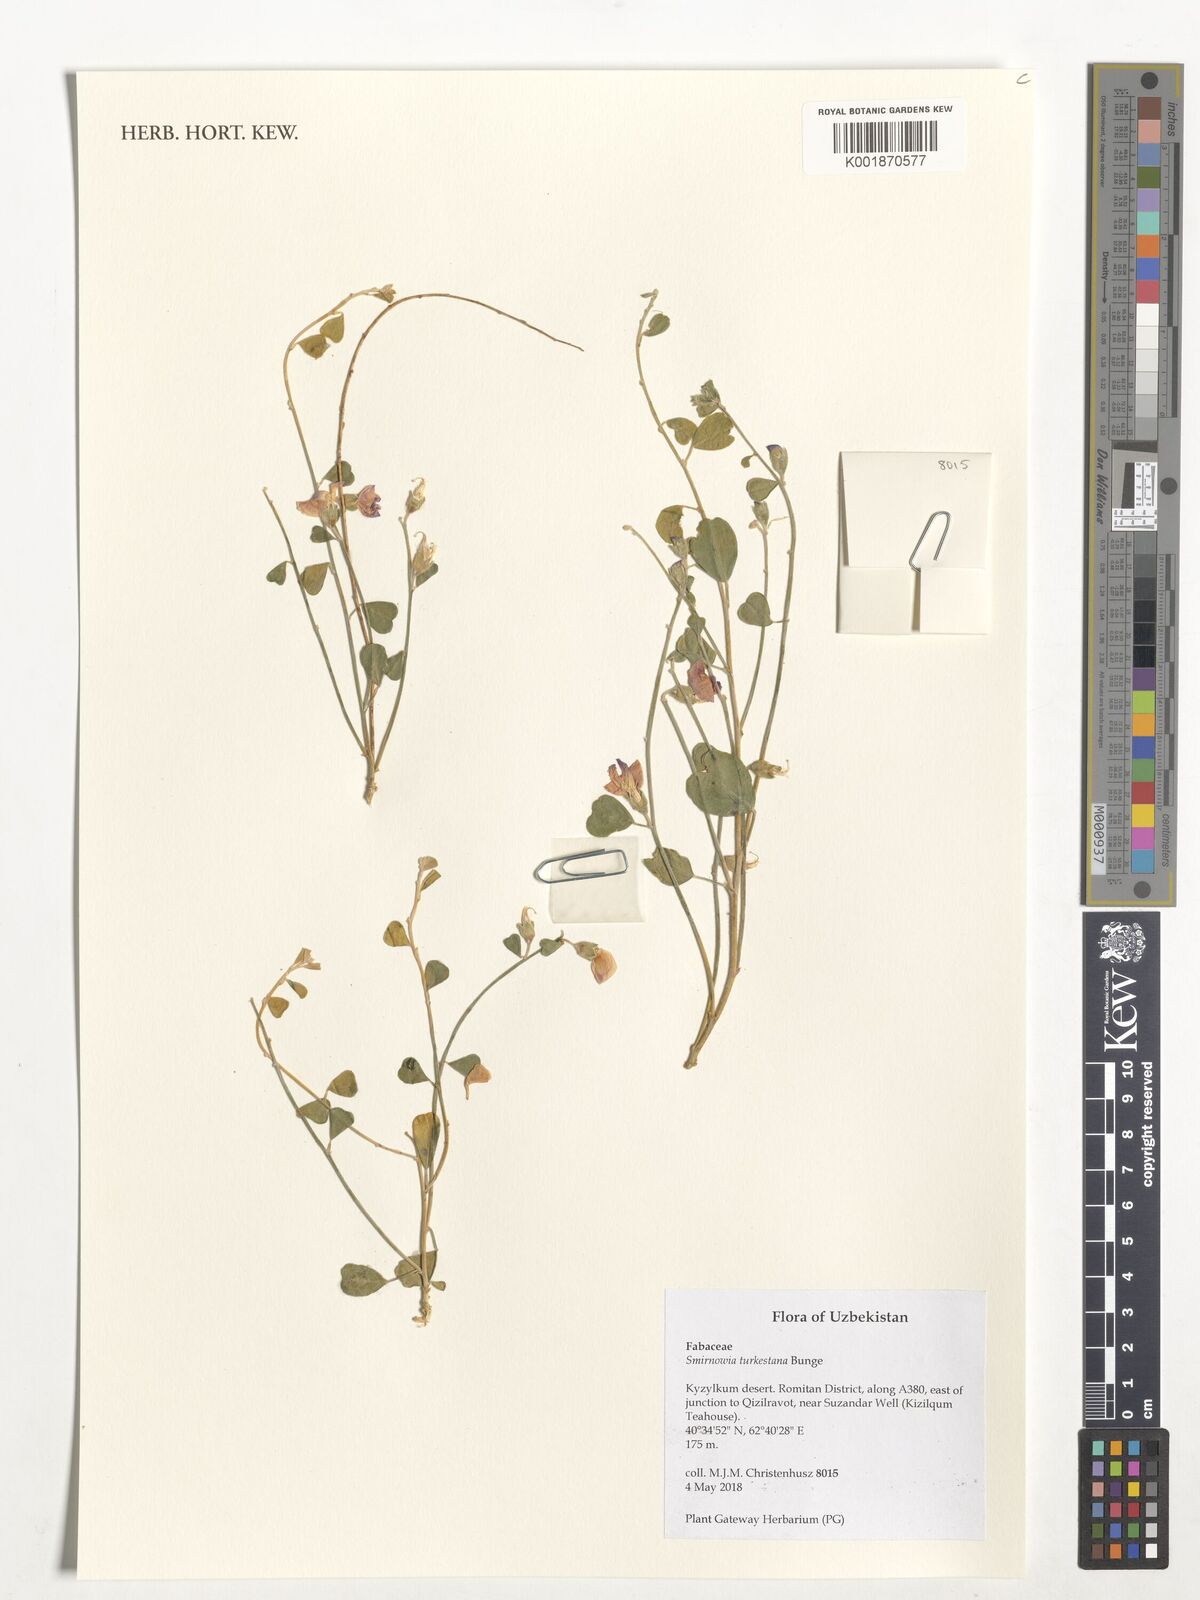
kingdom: Plantae
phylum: Tracheophyta
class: Magnoliopsida
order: Fabales
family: Fabaceae
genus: Smirnowia
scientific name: Smirnowia turkestana
